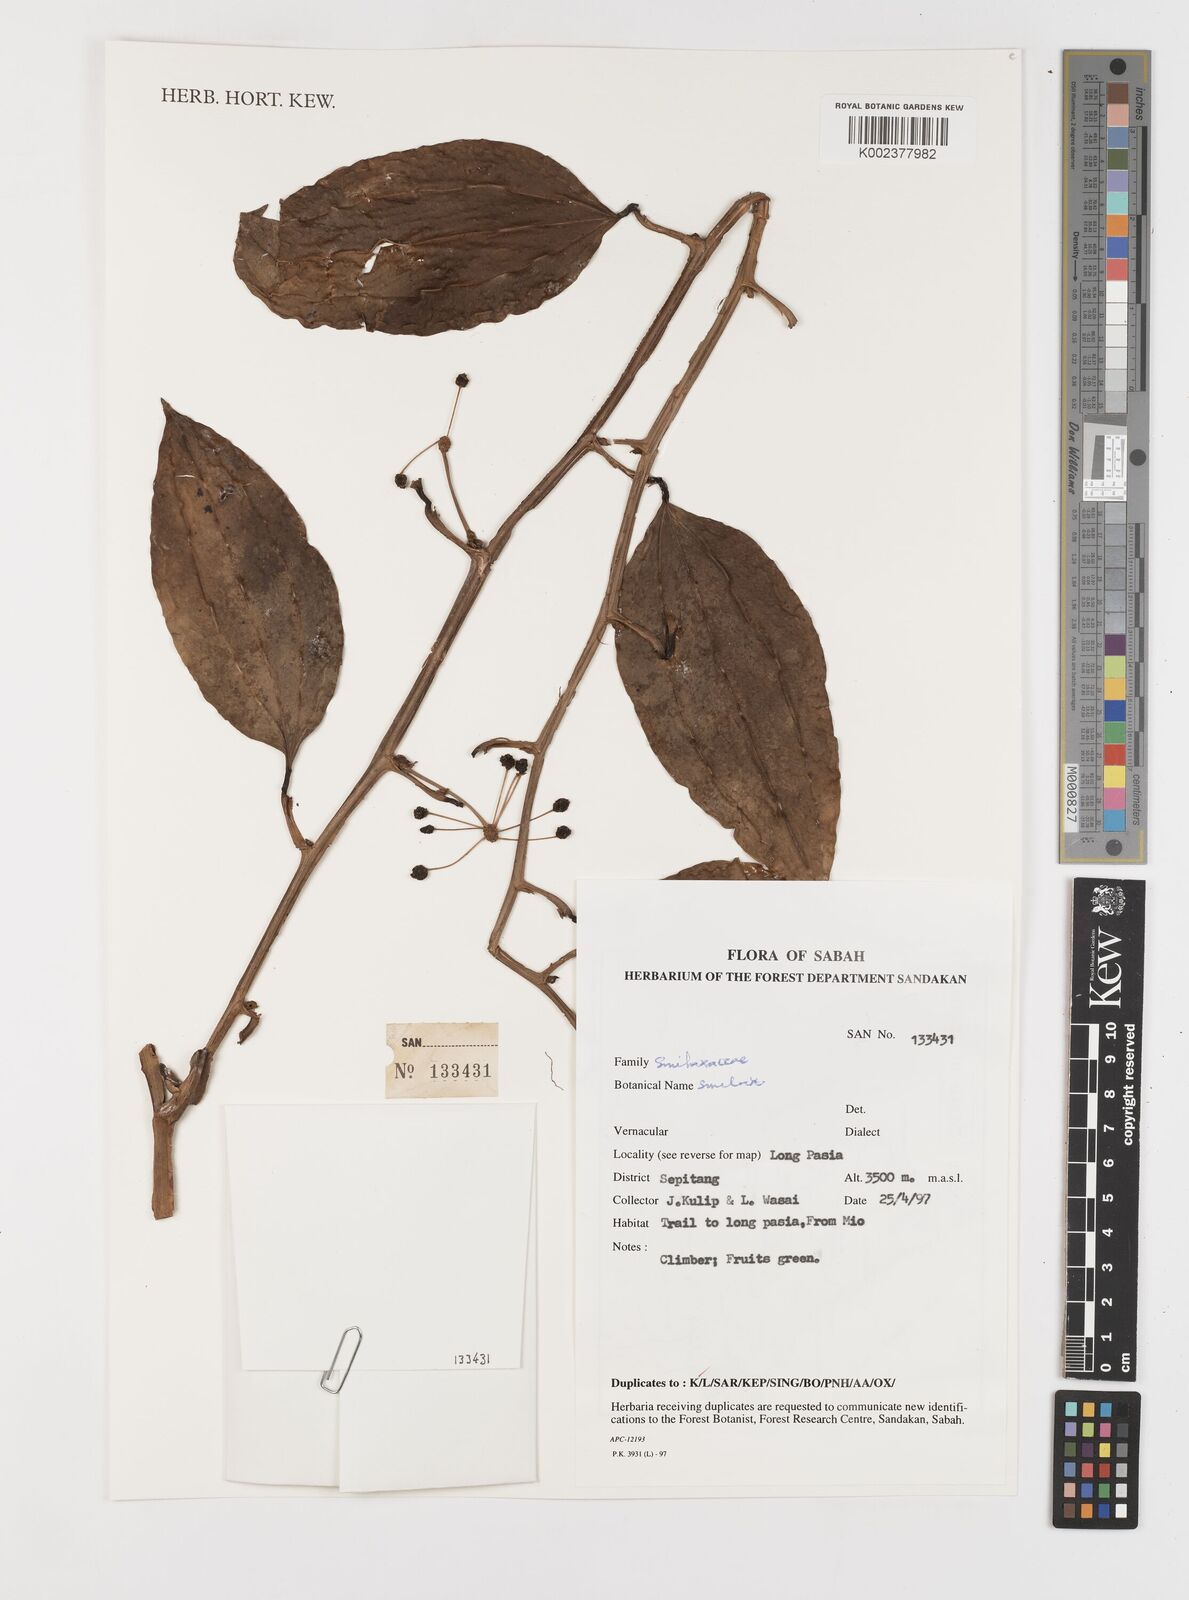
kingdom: Plantae
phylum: Tracheophyta
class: Liliopsida
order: Liliales
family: Smilacaceae
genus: Smilax
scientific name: Smilax
